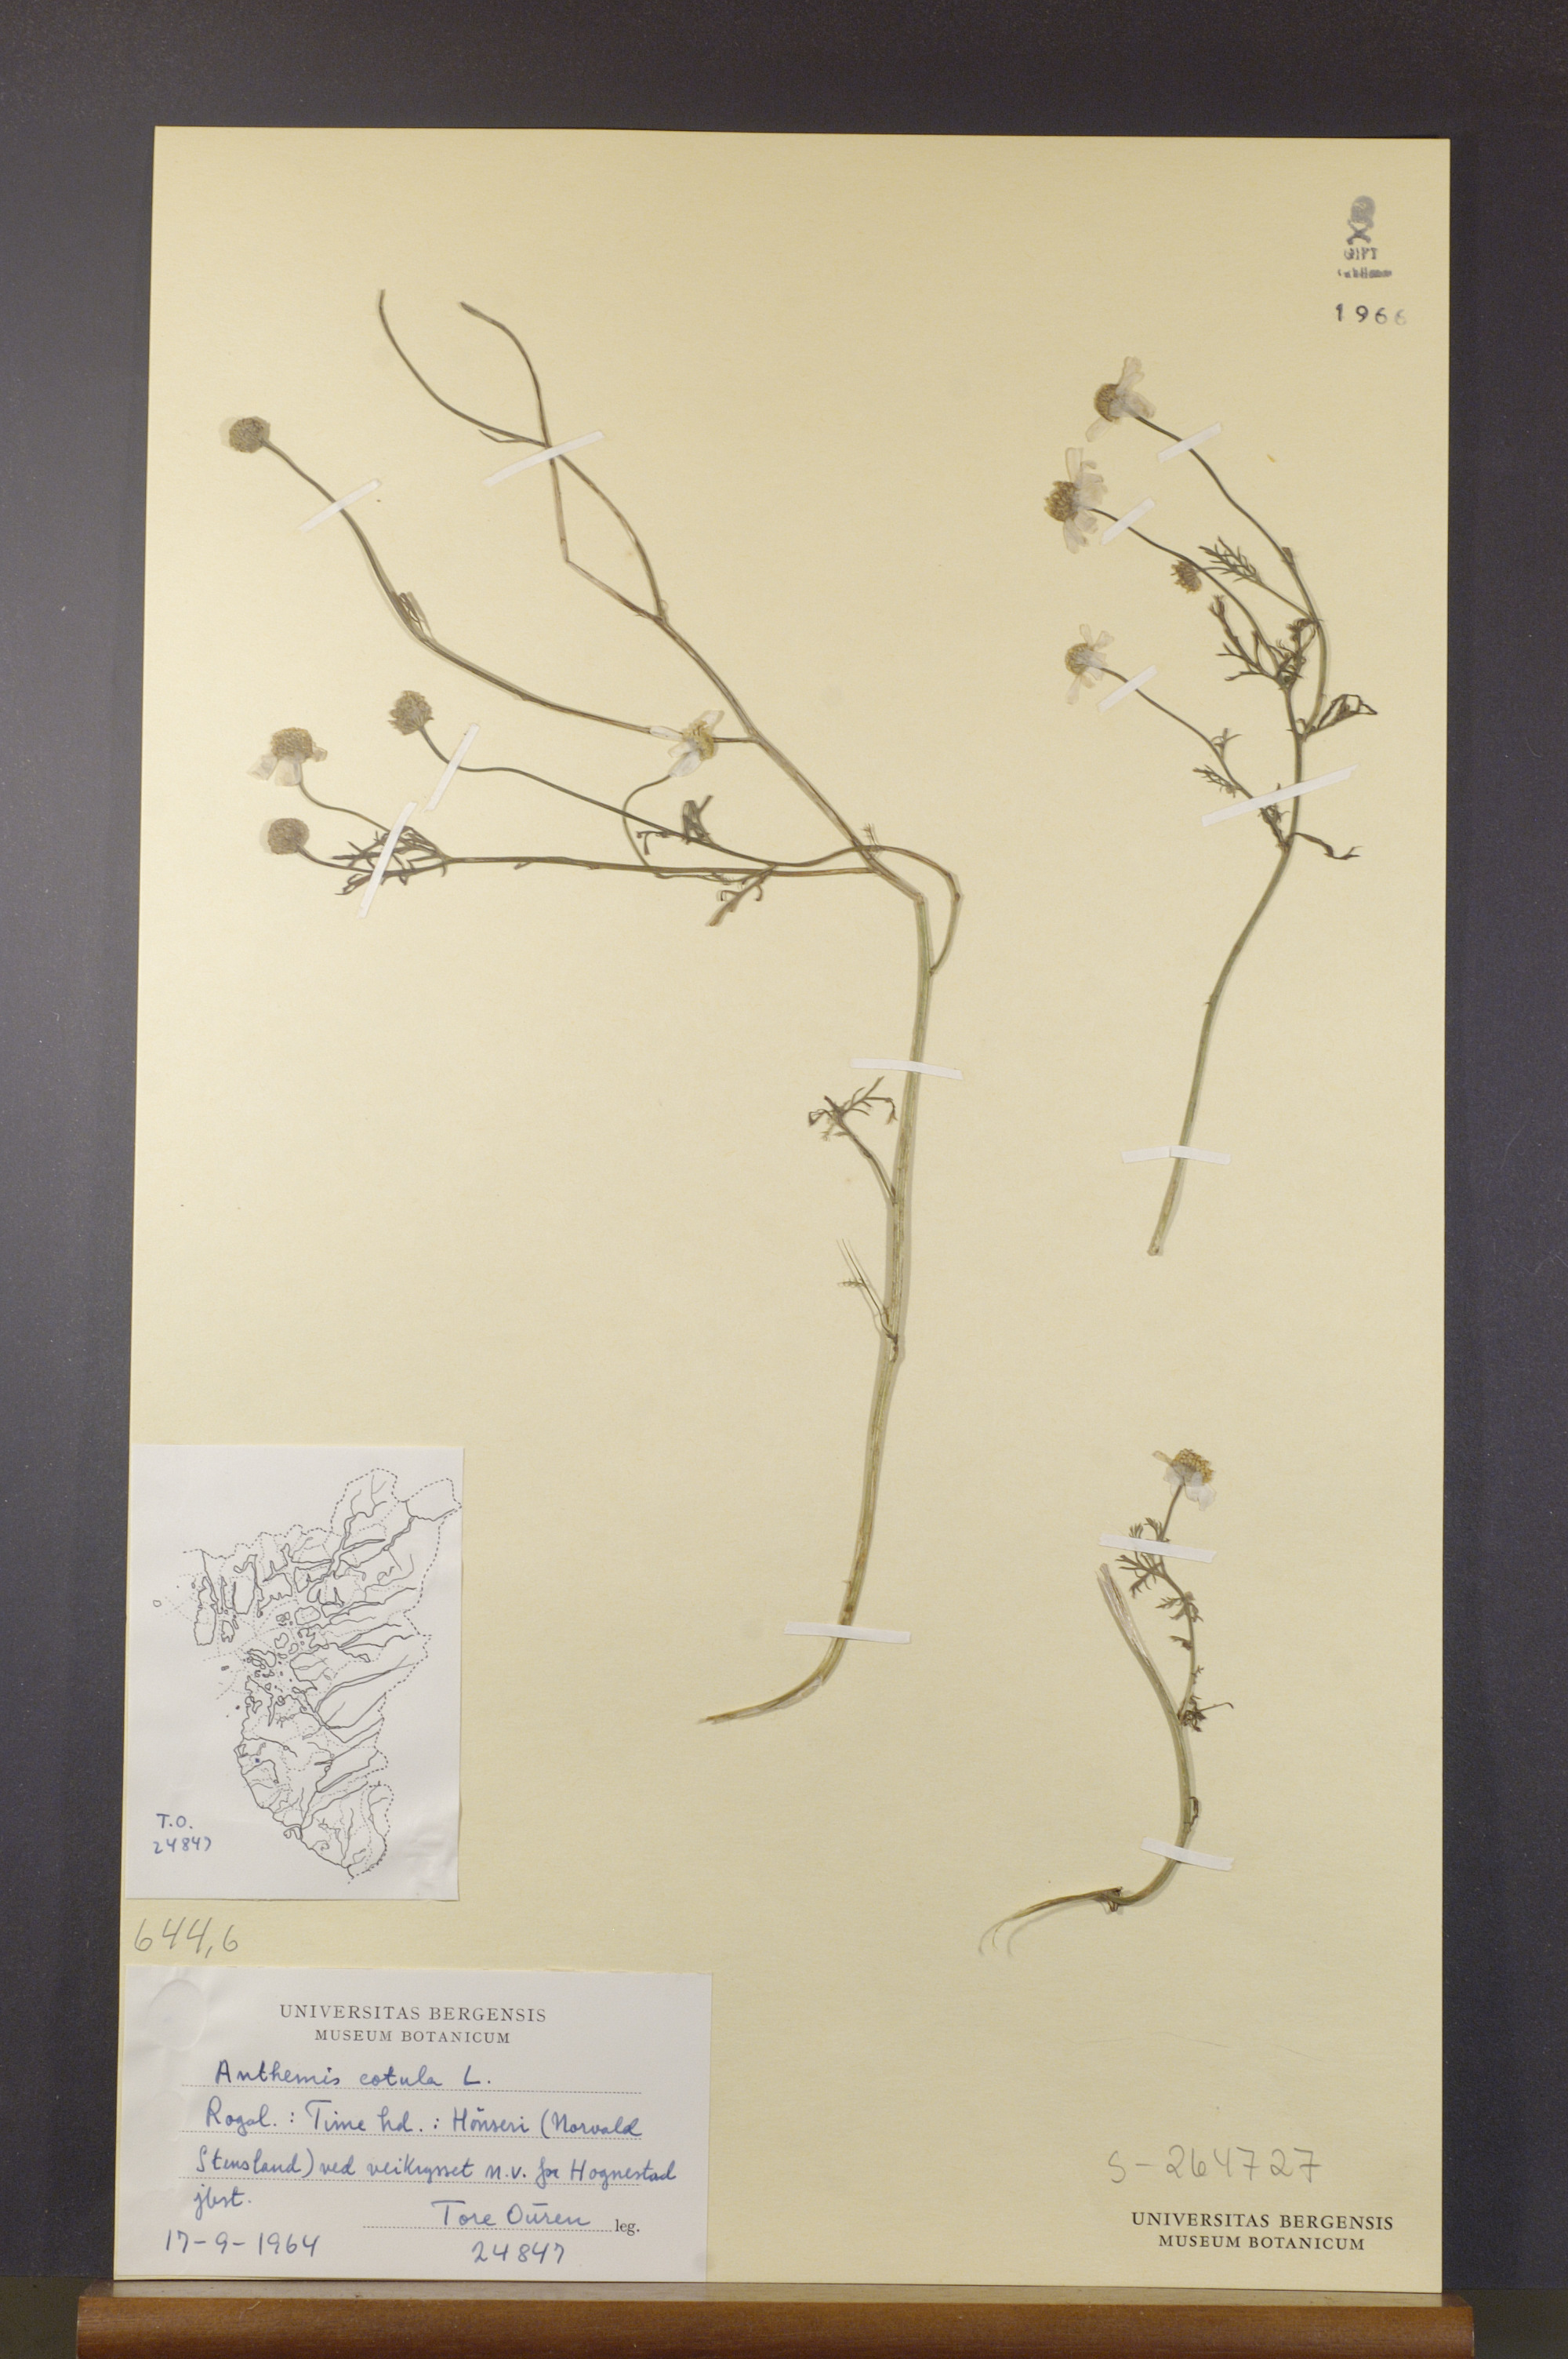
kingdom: Plantae
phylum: Tracheophyta
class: Magnoliopsida
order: Asterales
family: Asteraceae
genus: Anthemis
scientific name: Anthemis cotula
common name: Stinking chamomile
